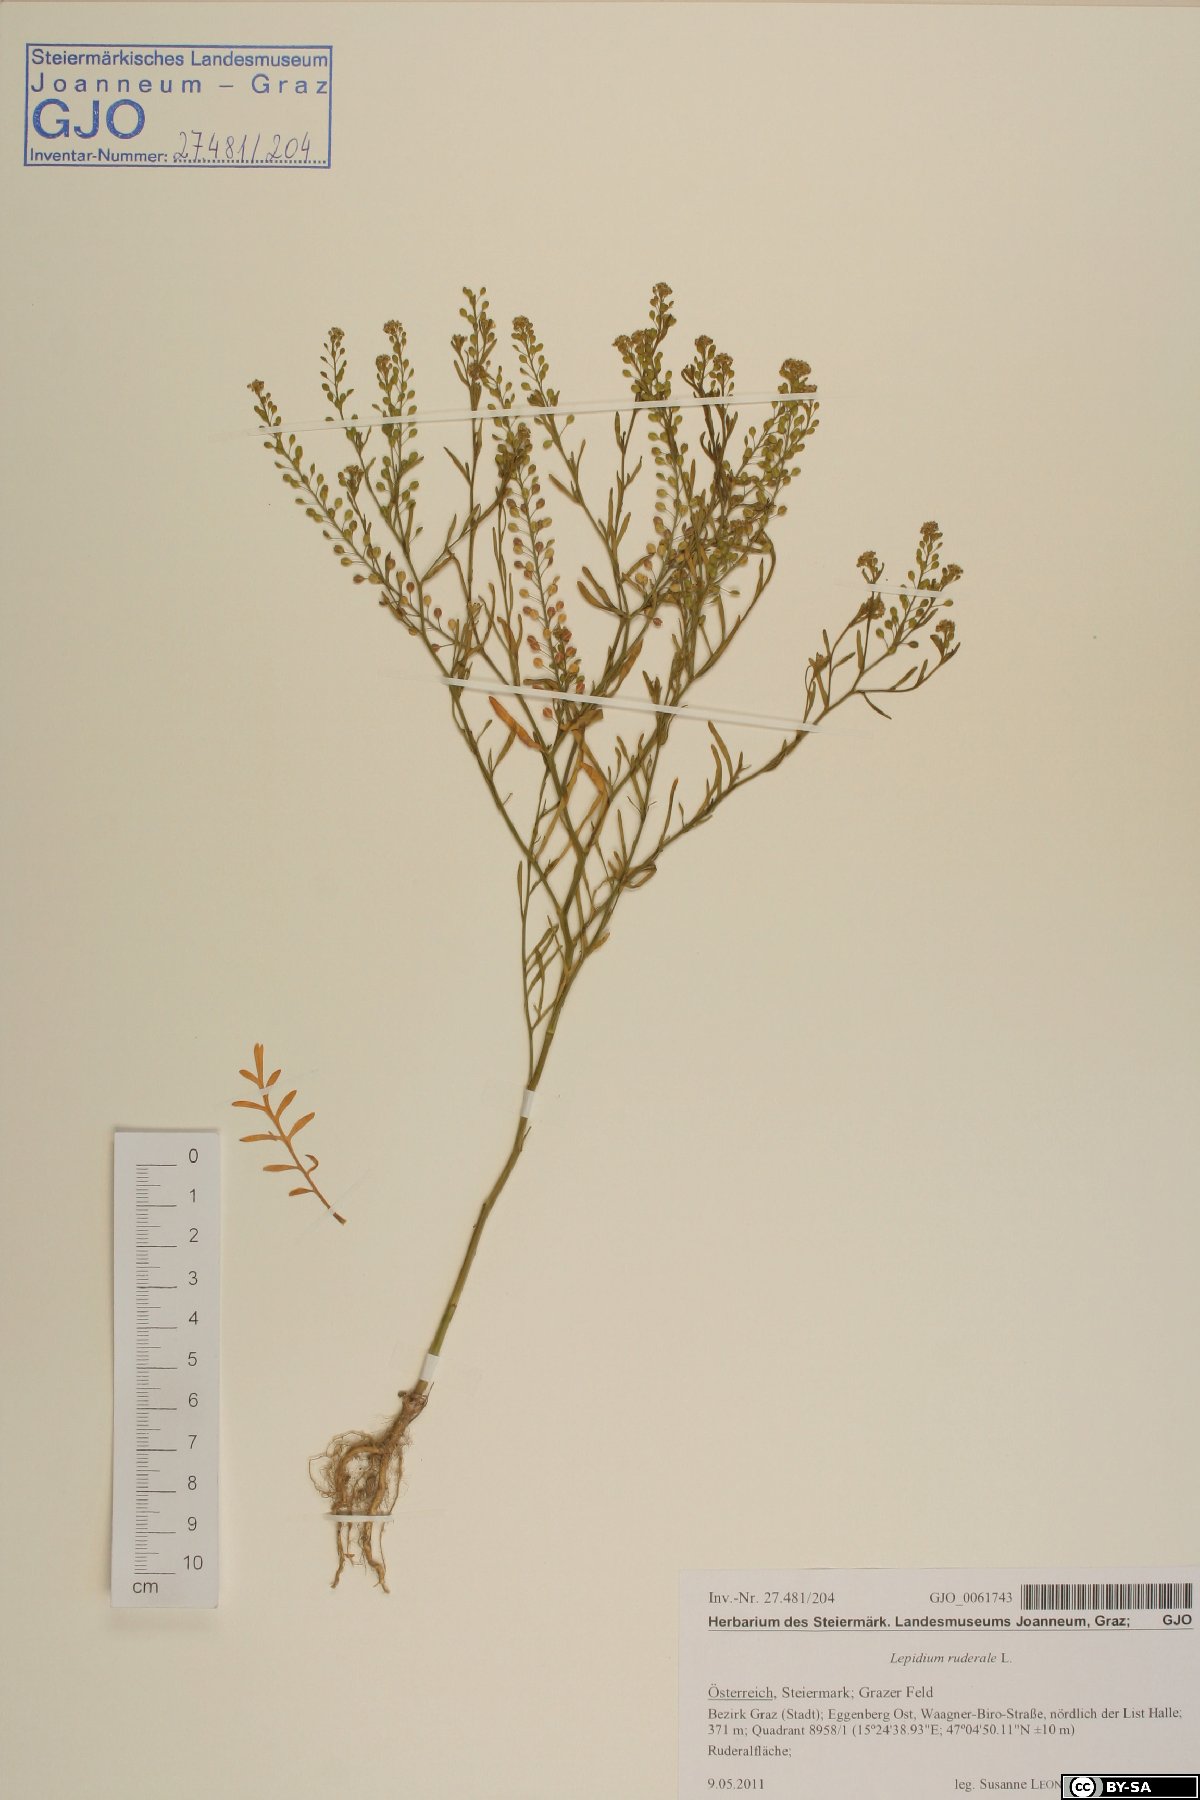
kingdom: Plantae
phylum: Tracheophyta
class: Magnoliopsida
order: Brassicales
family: Brassicaceae
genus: Lepidium
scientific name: Lepidium ruderale
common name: Narrow-leaved pepperwort
